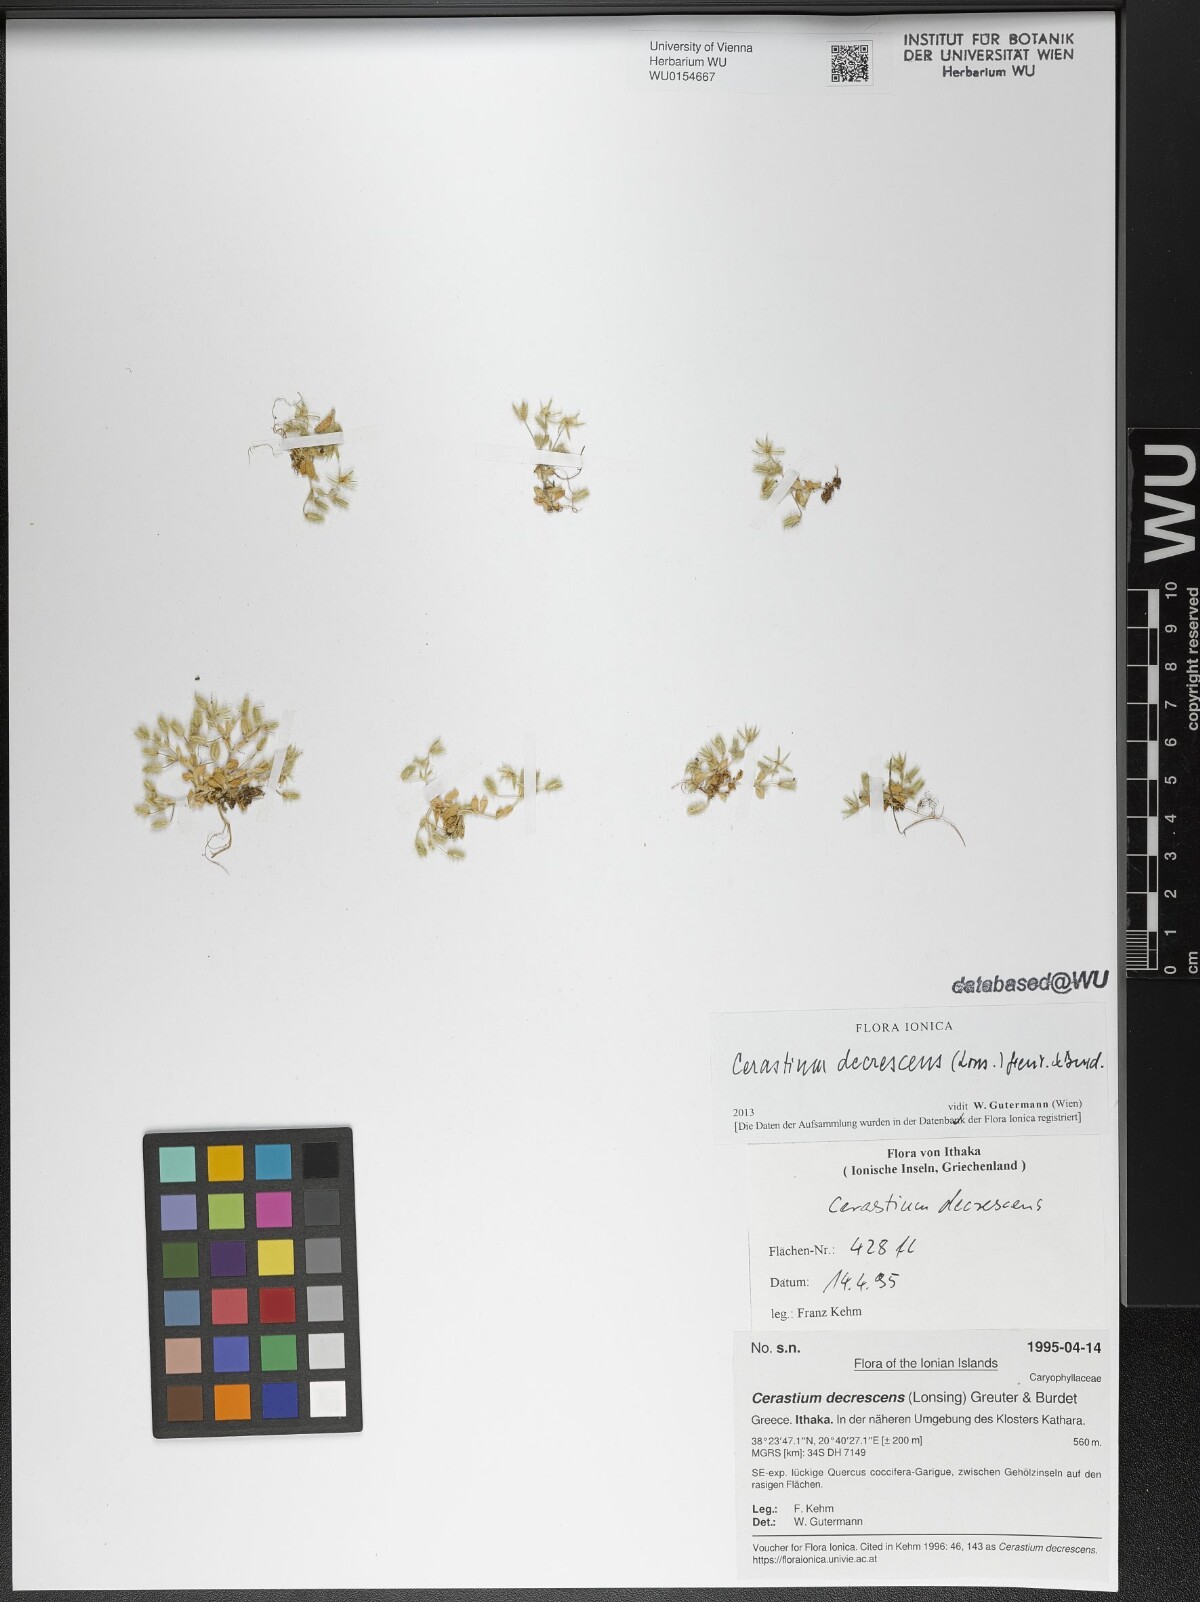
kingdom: Plantae
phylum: Tracheophyta
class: Magnoliopsida
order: Caryophyllales
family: Caryophyllaceae
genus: Cerastium
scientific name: Cerastium illyricum
